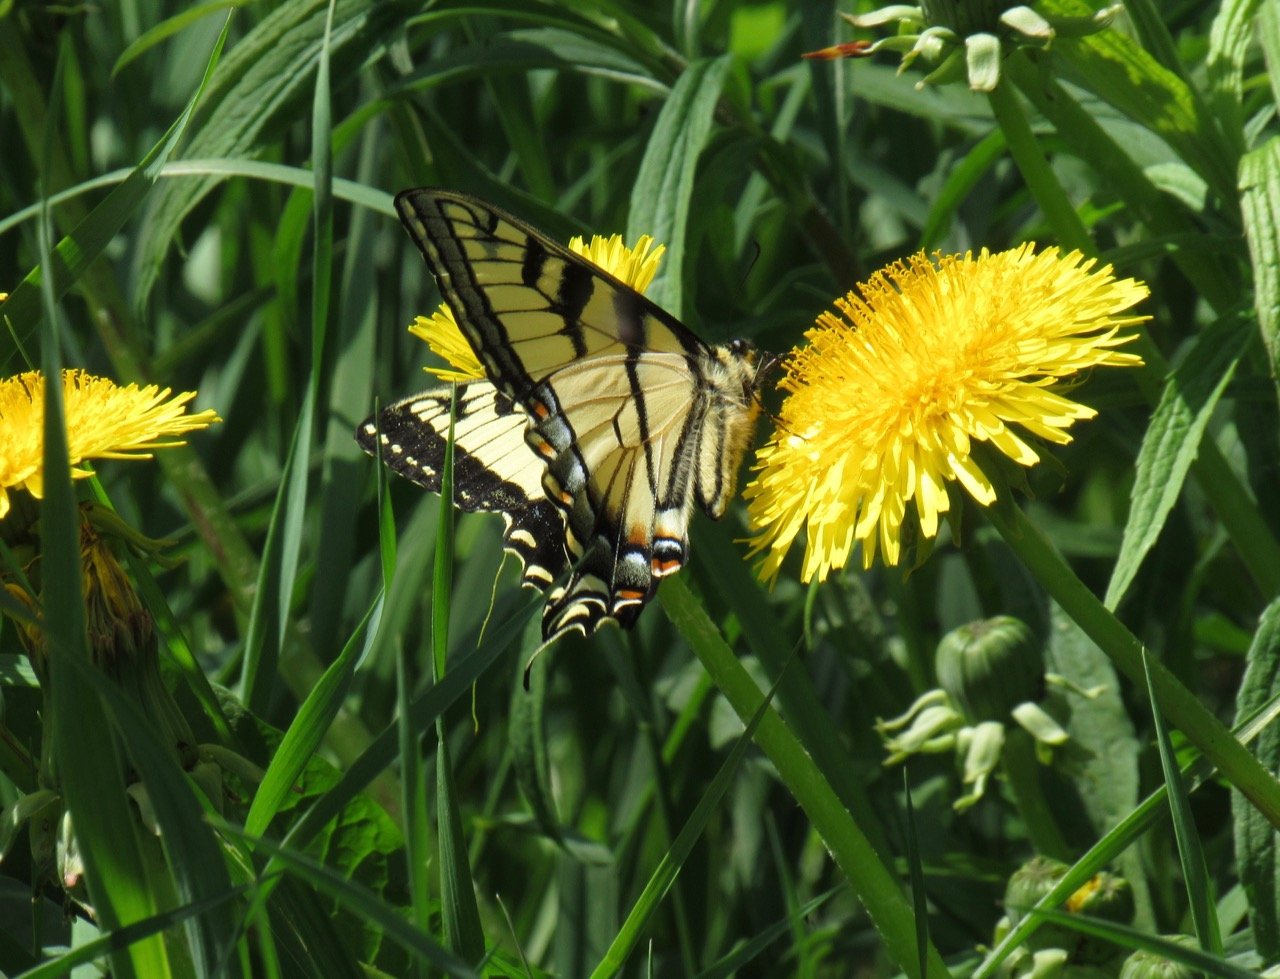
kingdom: Animalia
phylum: Arthropoda
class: Insecta
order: Lepidoptera
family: Papilionidae
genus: Pterourus
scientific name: Pterourus canadensis
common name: Canadian Tiger Swallowtail
